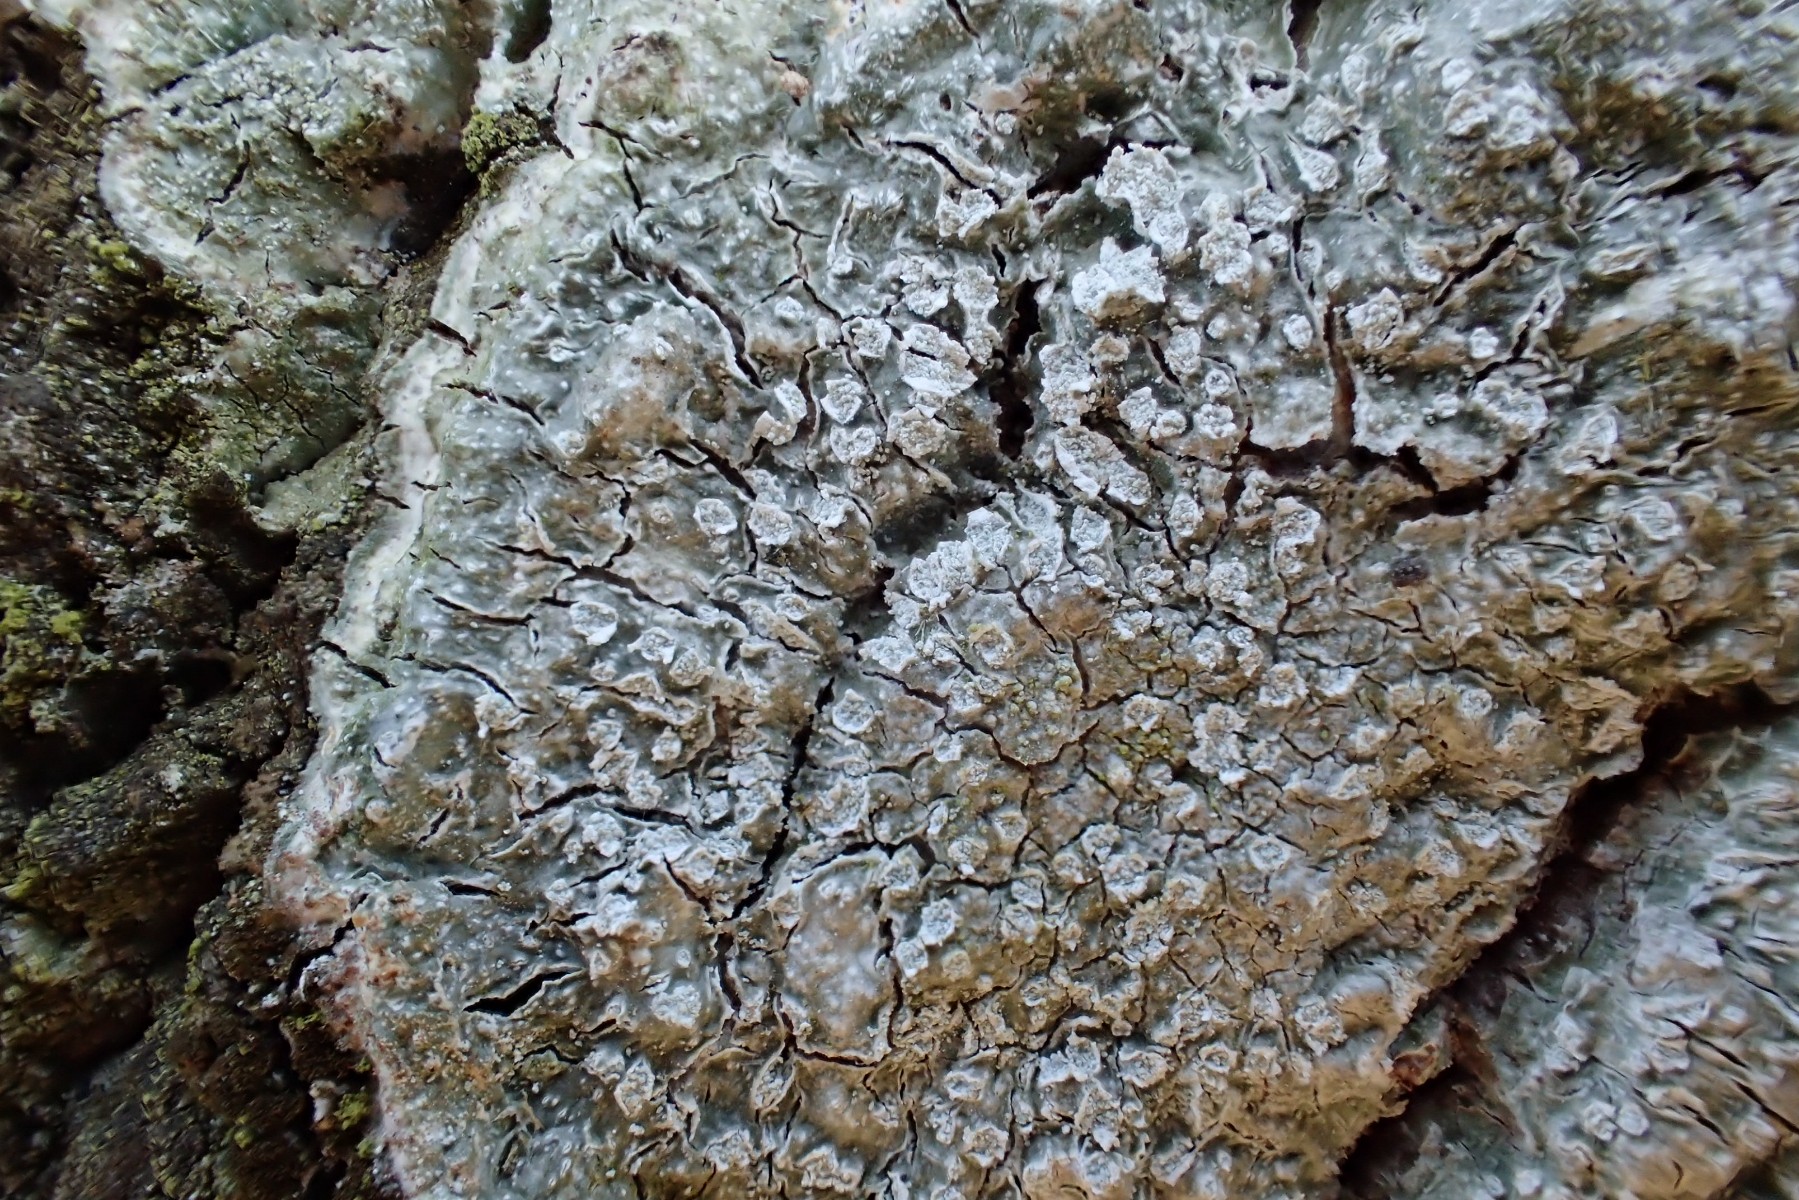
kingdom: Fungi
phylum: Ascomycota
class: Lecanoromycetes
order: Pertusariales
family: Pertusariaceae
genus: Lepra
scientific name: Lepra albescens
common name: hvidmelet prikvortelav
